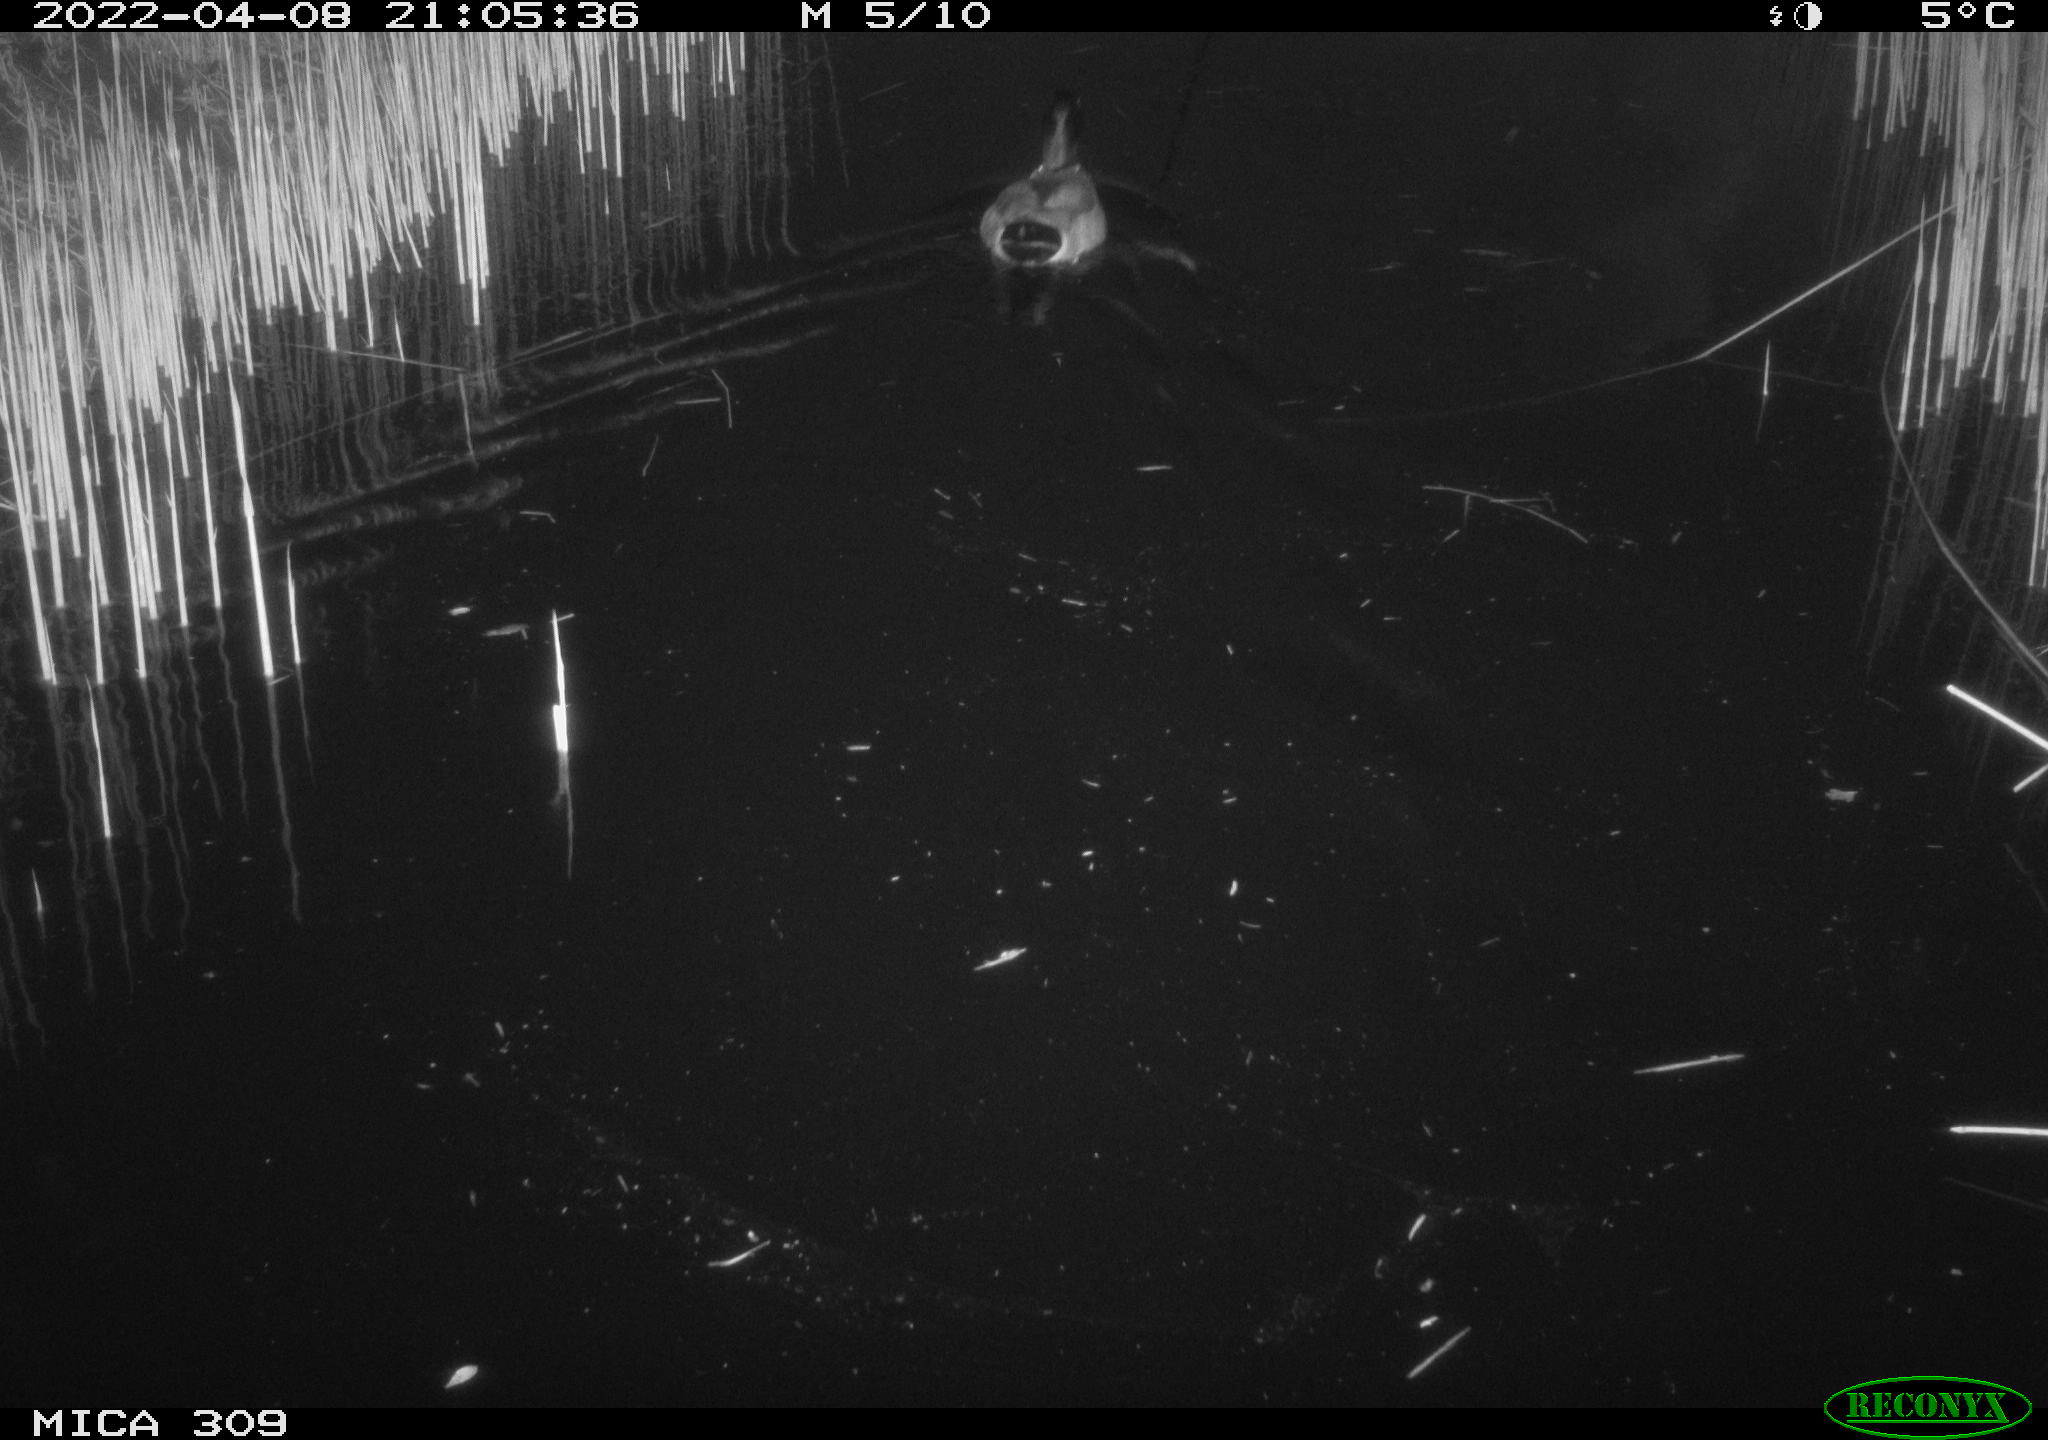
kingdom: Animalia
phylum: Chordata
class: Aves
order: Anseriformes
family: Anatidae
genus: Anas
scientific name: Anas platyrhynchos
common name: Mallard
